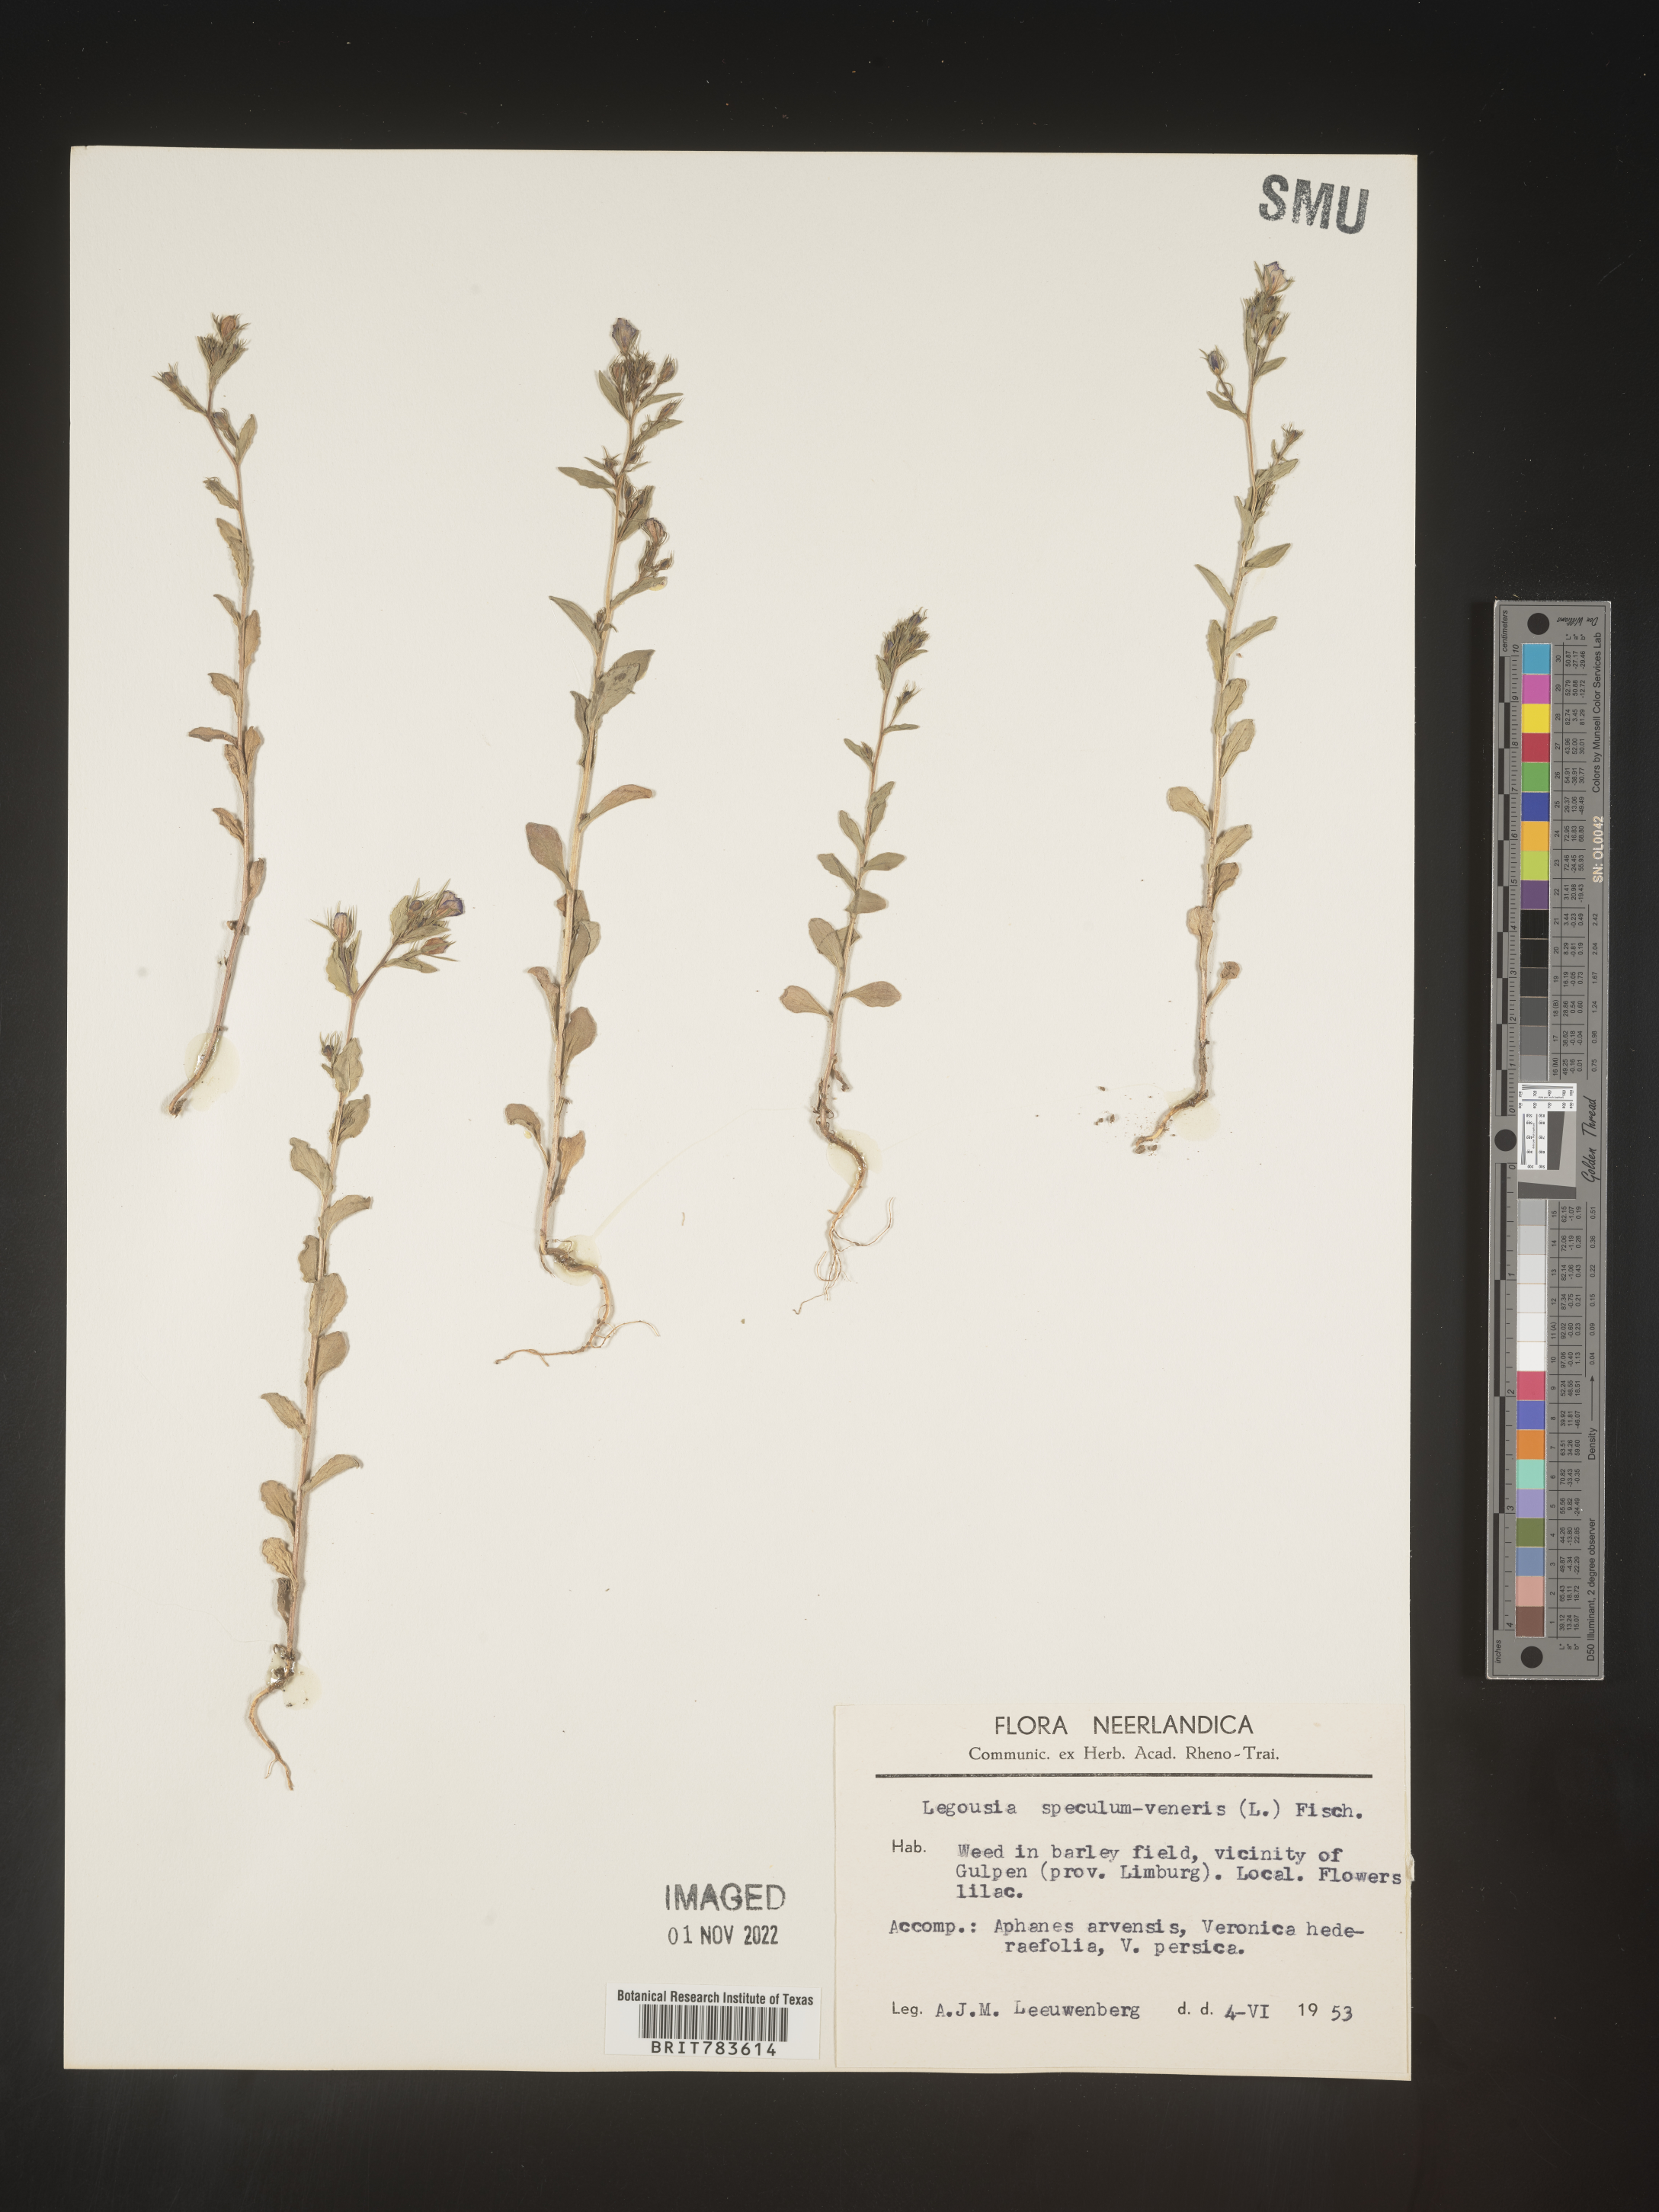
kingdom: Plantae
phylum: Tracheophyta
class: Magnoliopsida
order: Asterales
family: Campanulaceae
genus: Specularia
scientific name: Specularia
